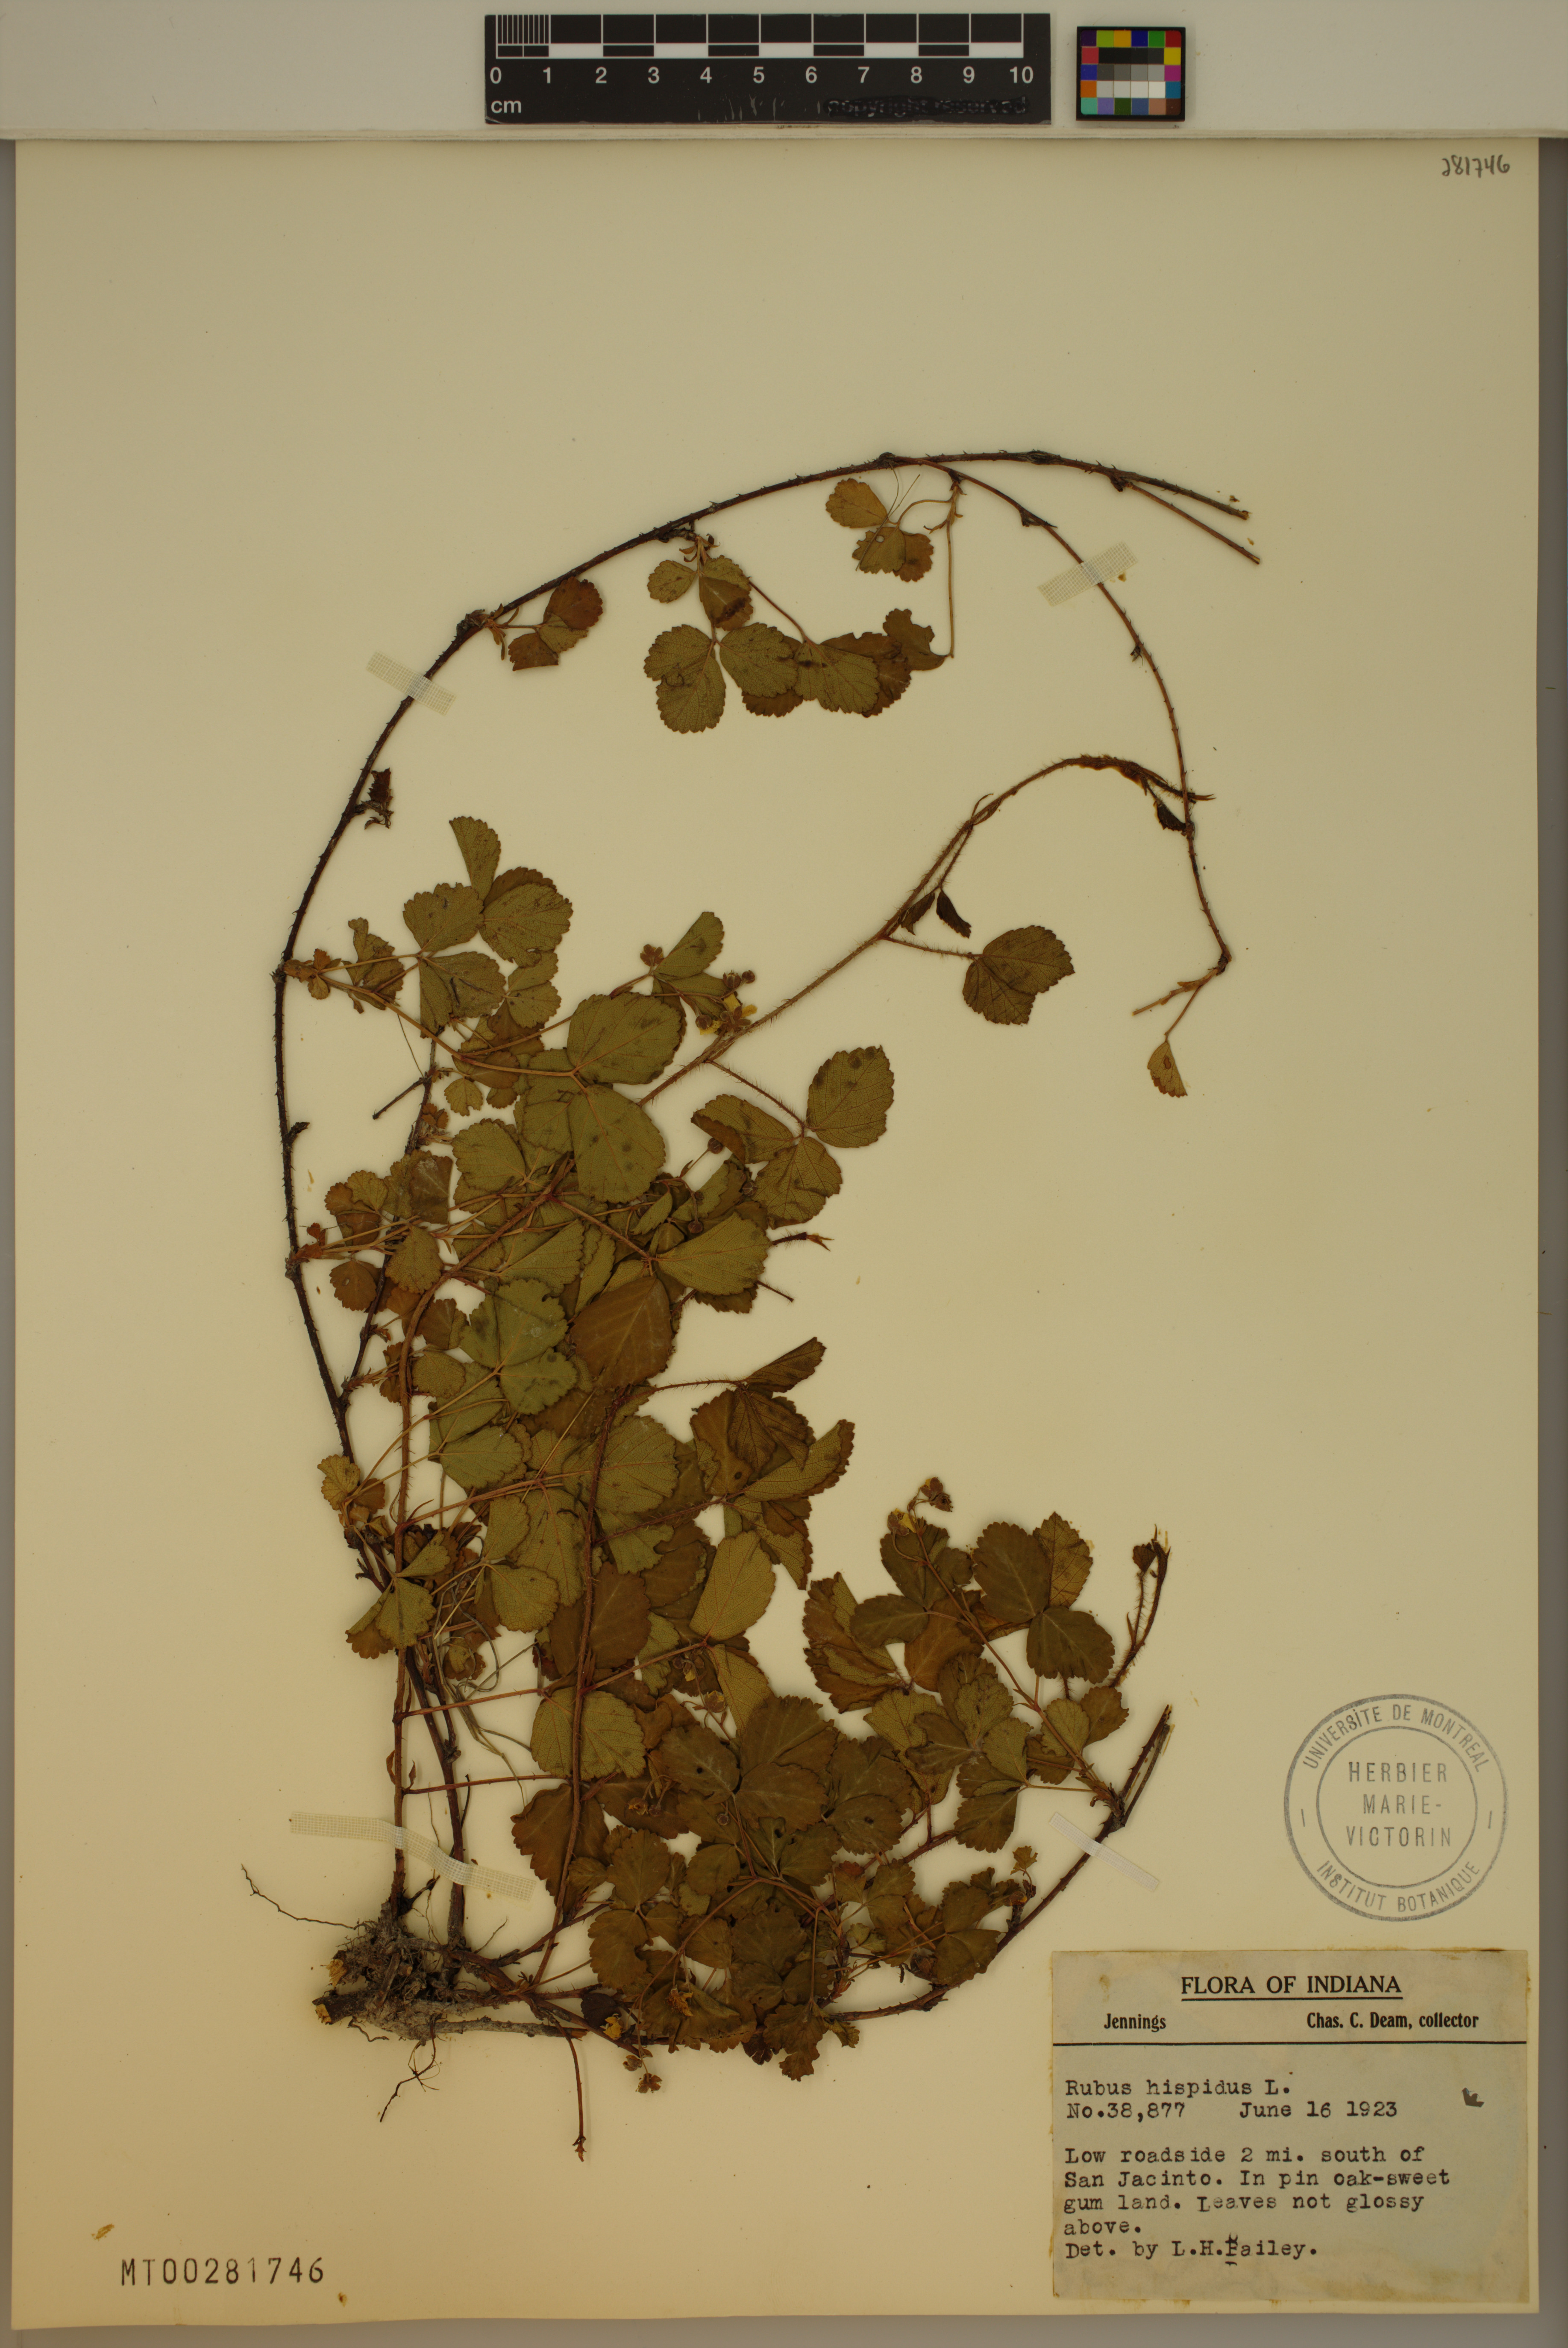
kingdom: Plantae
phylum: Tracheophyta
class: Magnoliopsida
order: Rosales
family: Rosaceae
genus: Rubus
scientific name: Rubus hispidus
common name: Running blackberry
